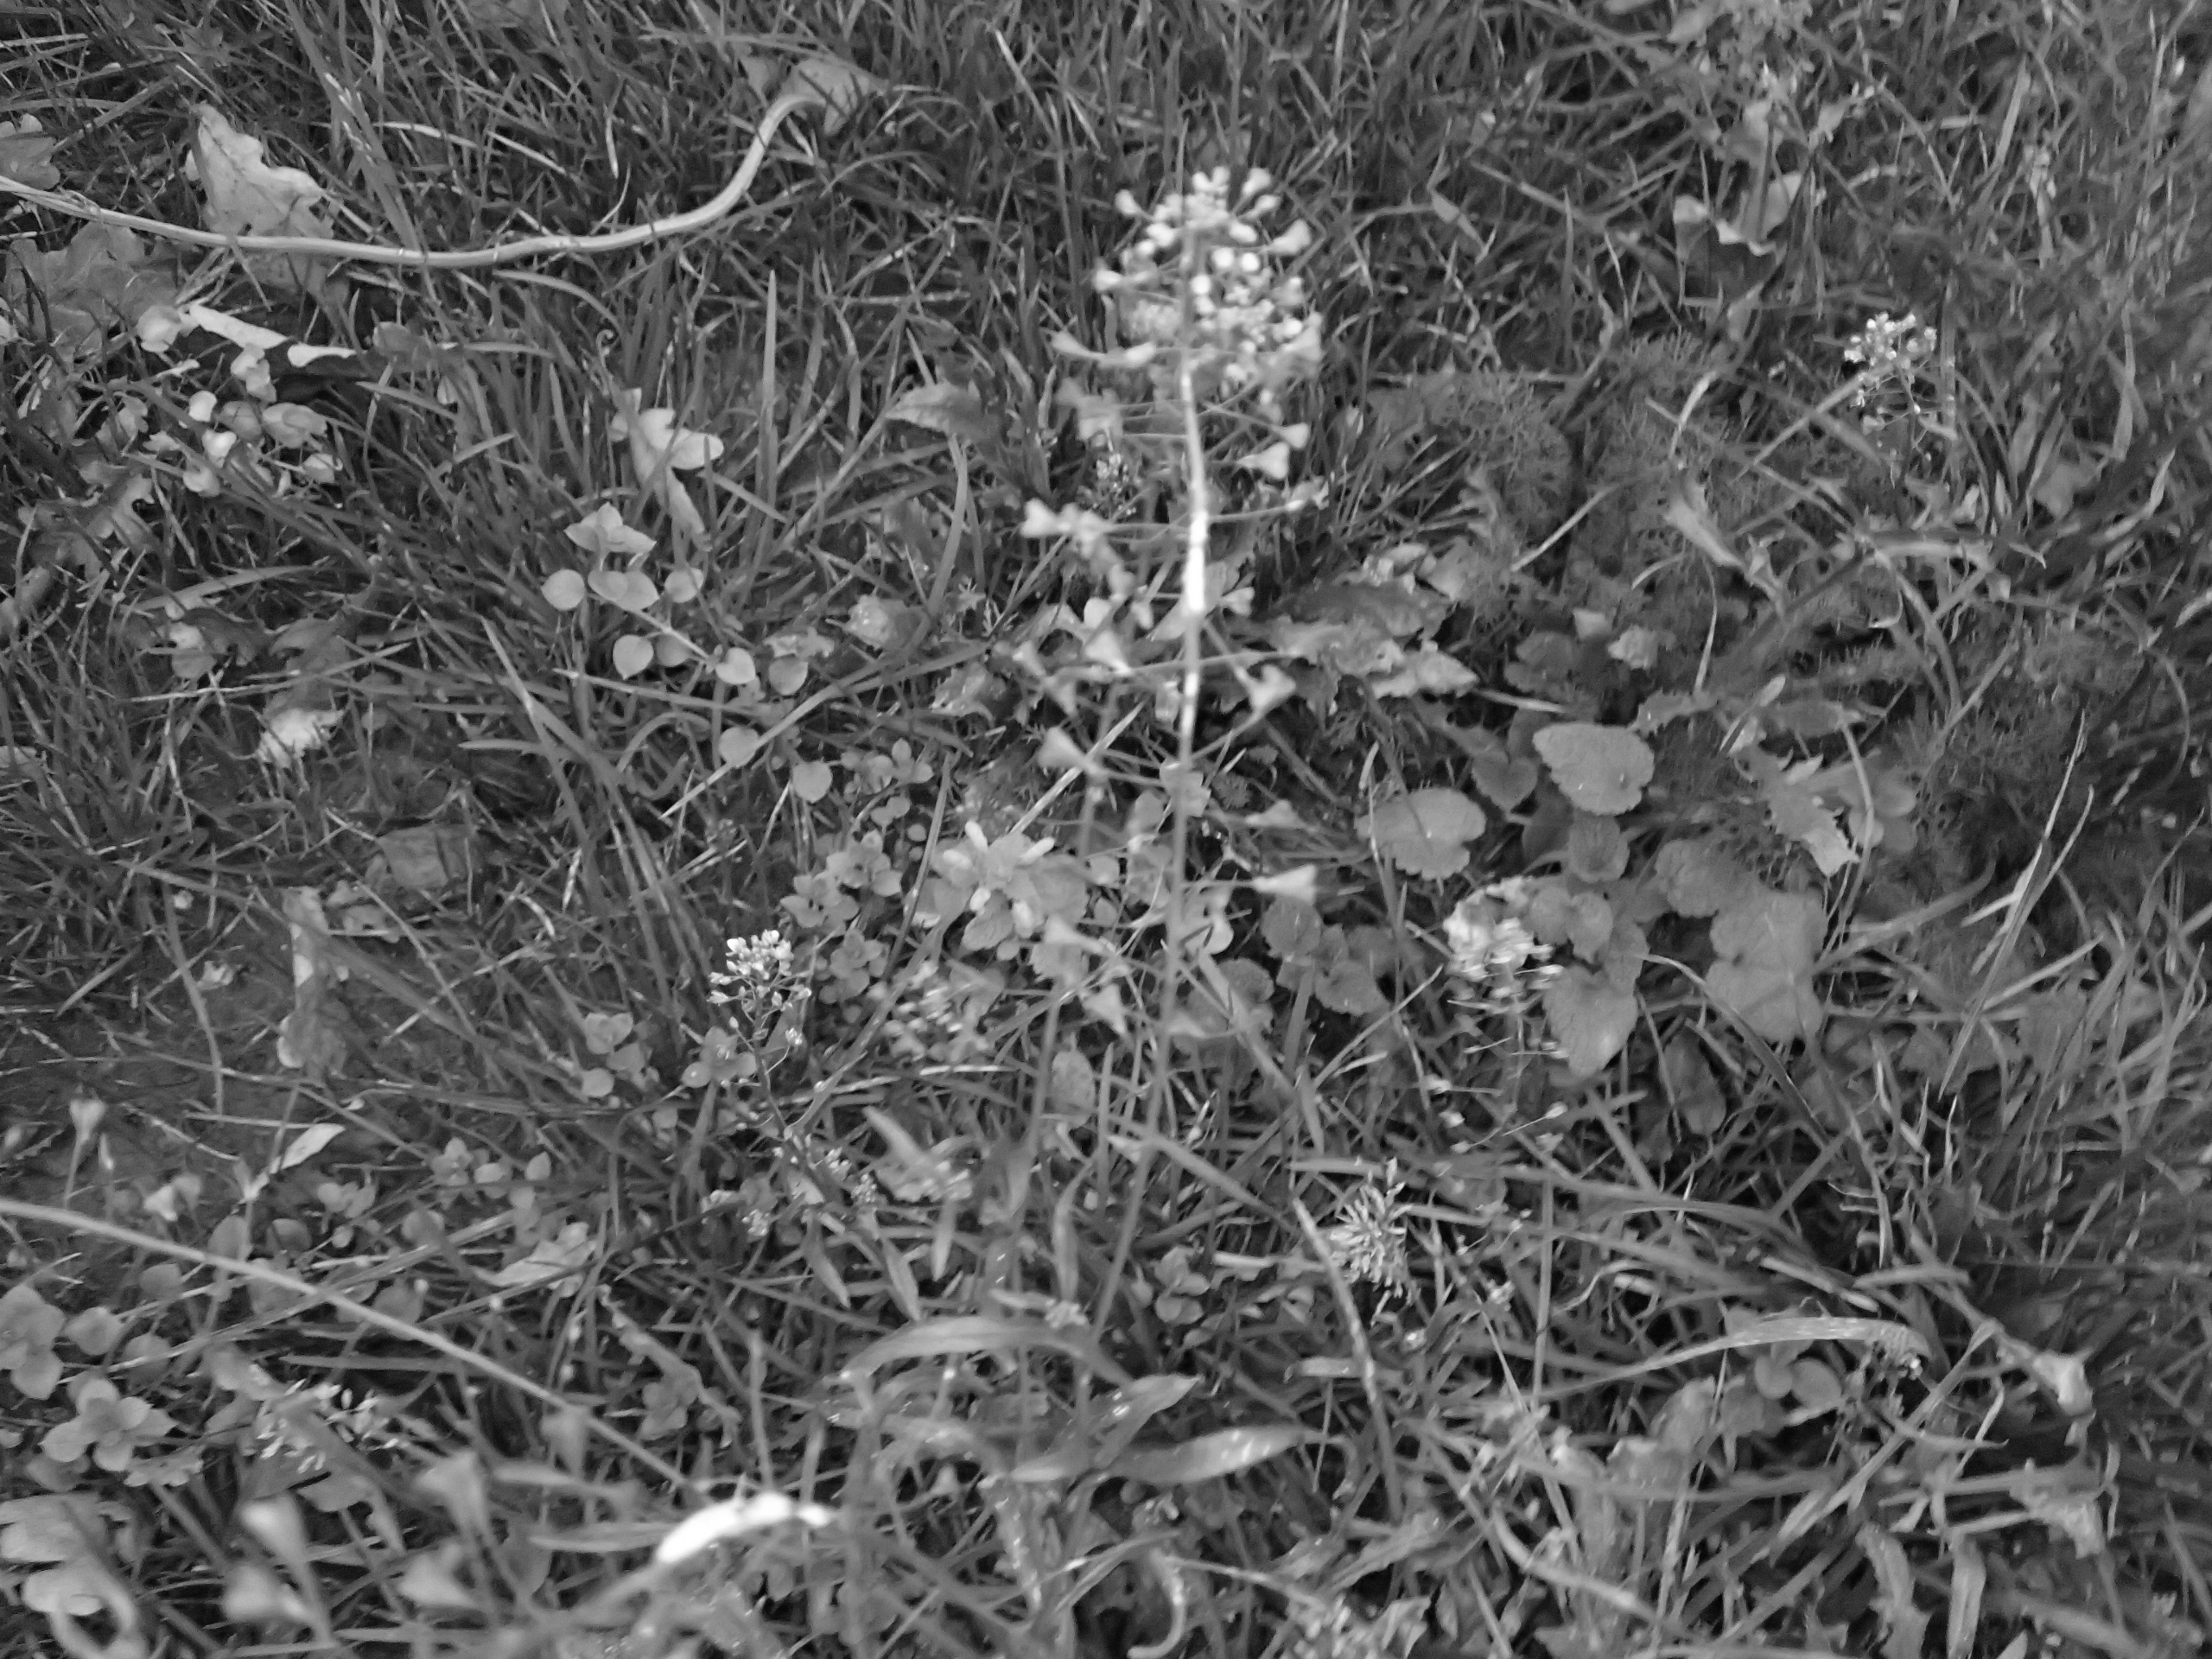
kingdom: Plantae
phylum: Tracheophyta
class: Magnoliopsida
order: Brassicales
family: Brassicaceae
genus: Capsella
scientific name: Capsella bursa-pastoris
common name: Hyrdetaske
